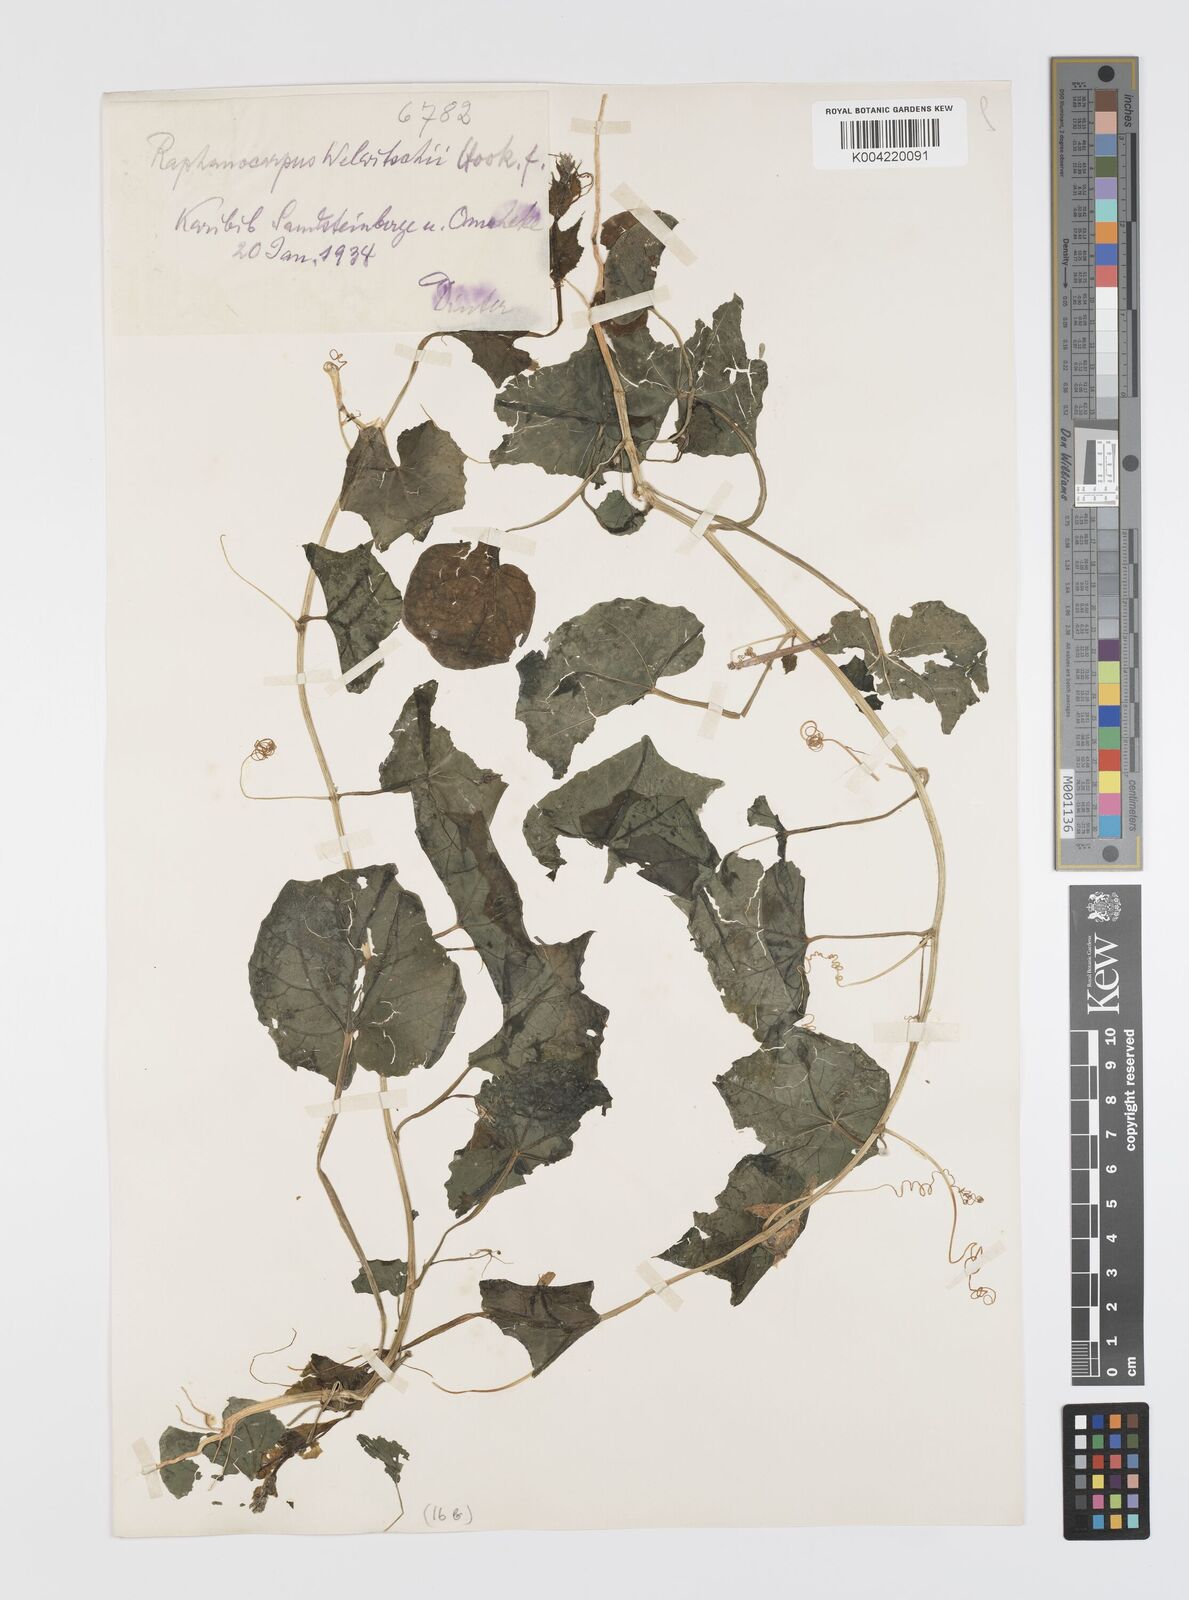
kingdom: Plantae
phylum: Tracheophyta
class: Magnoliopsida
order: Cucurbitales
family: Cucurbitaceae
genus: Momordica
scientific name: Momordica
